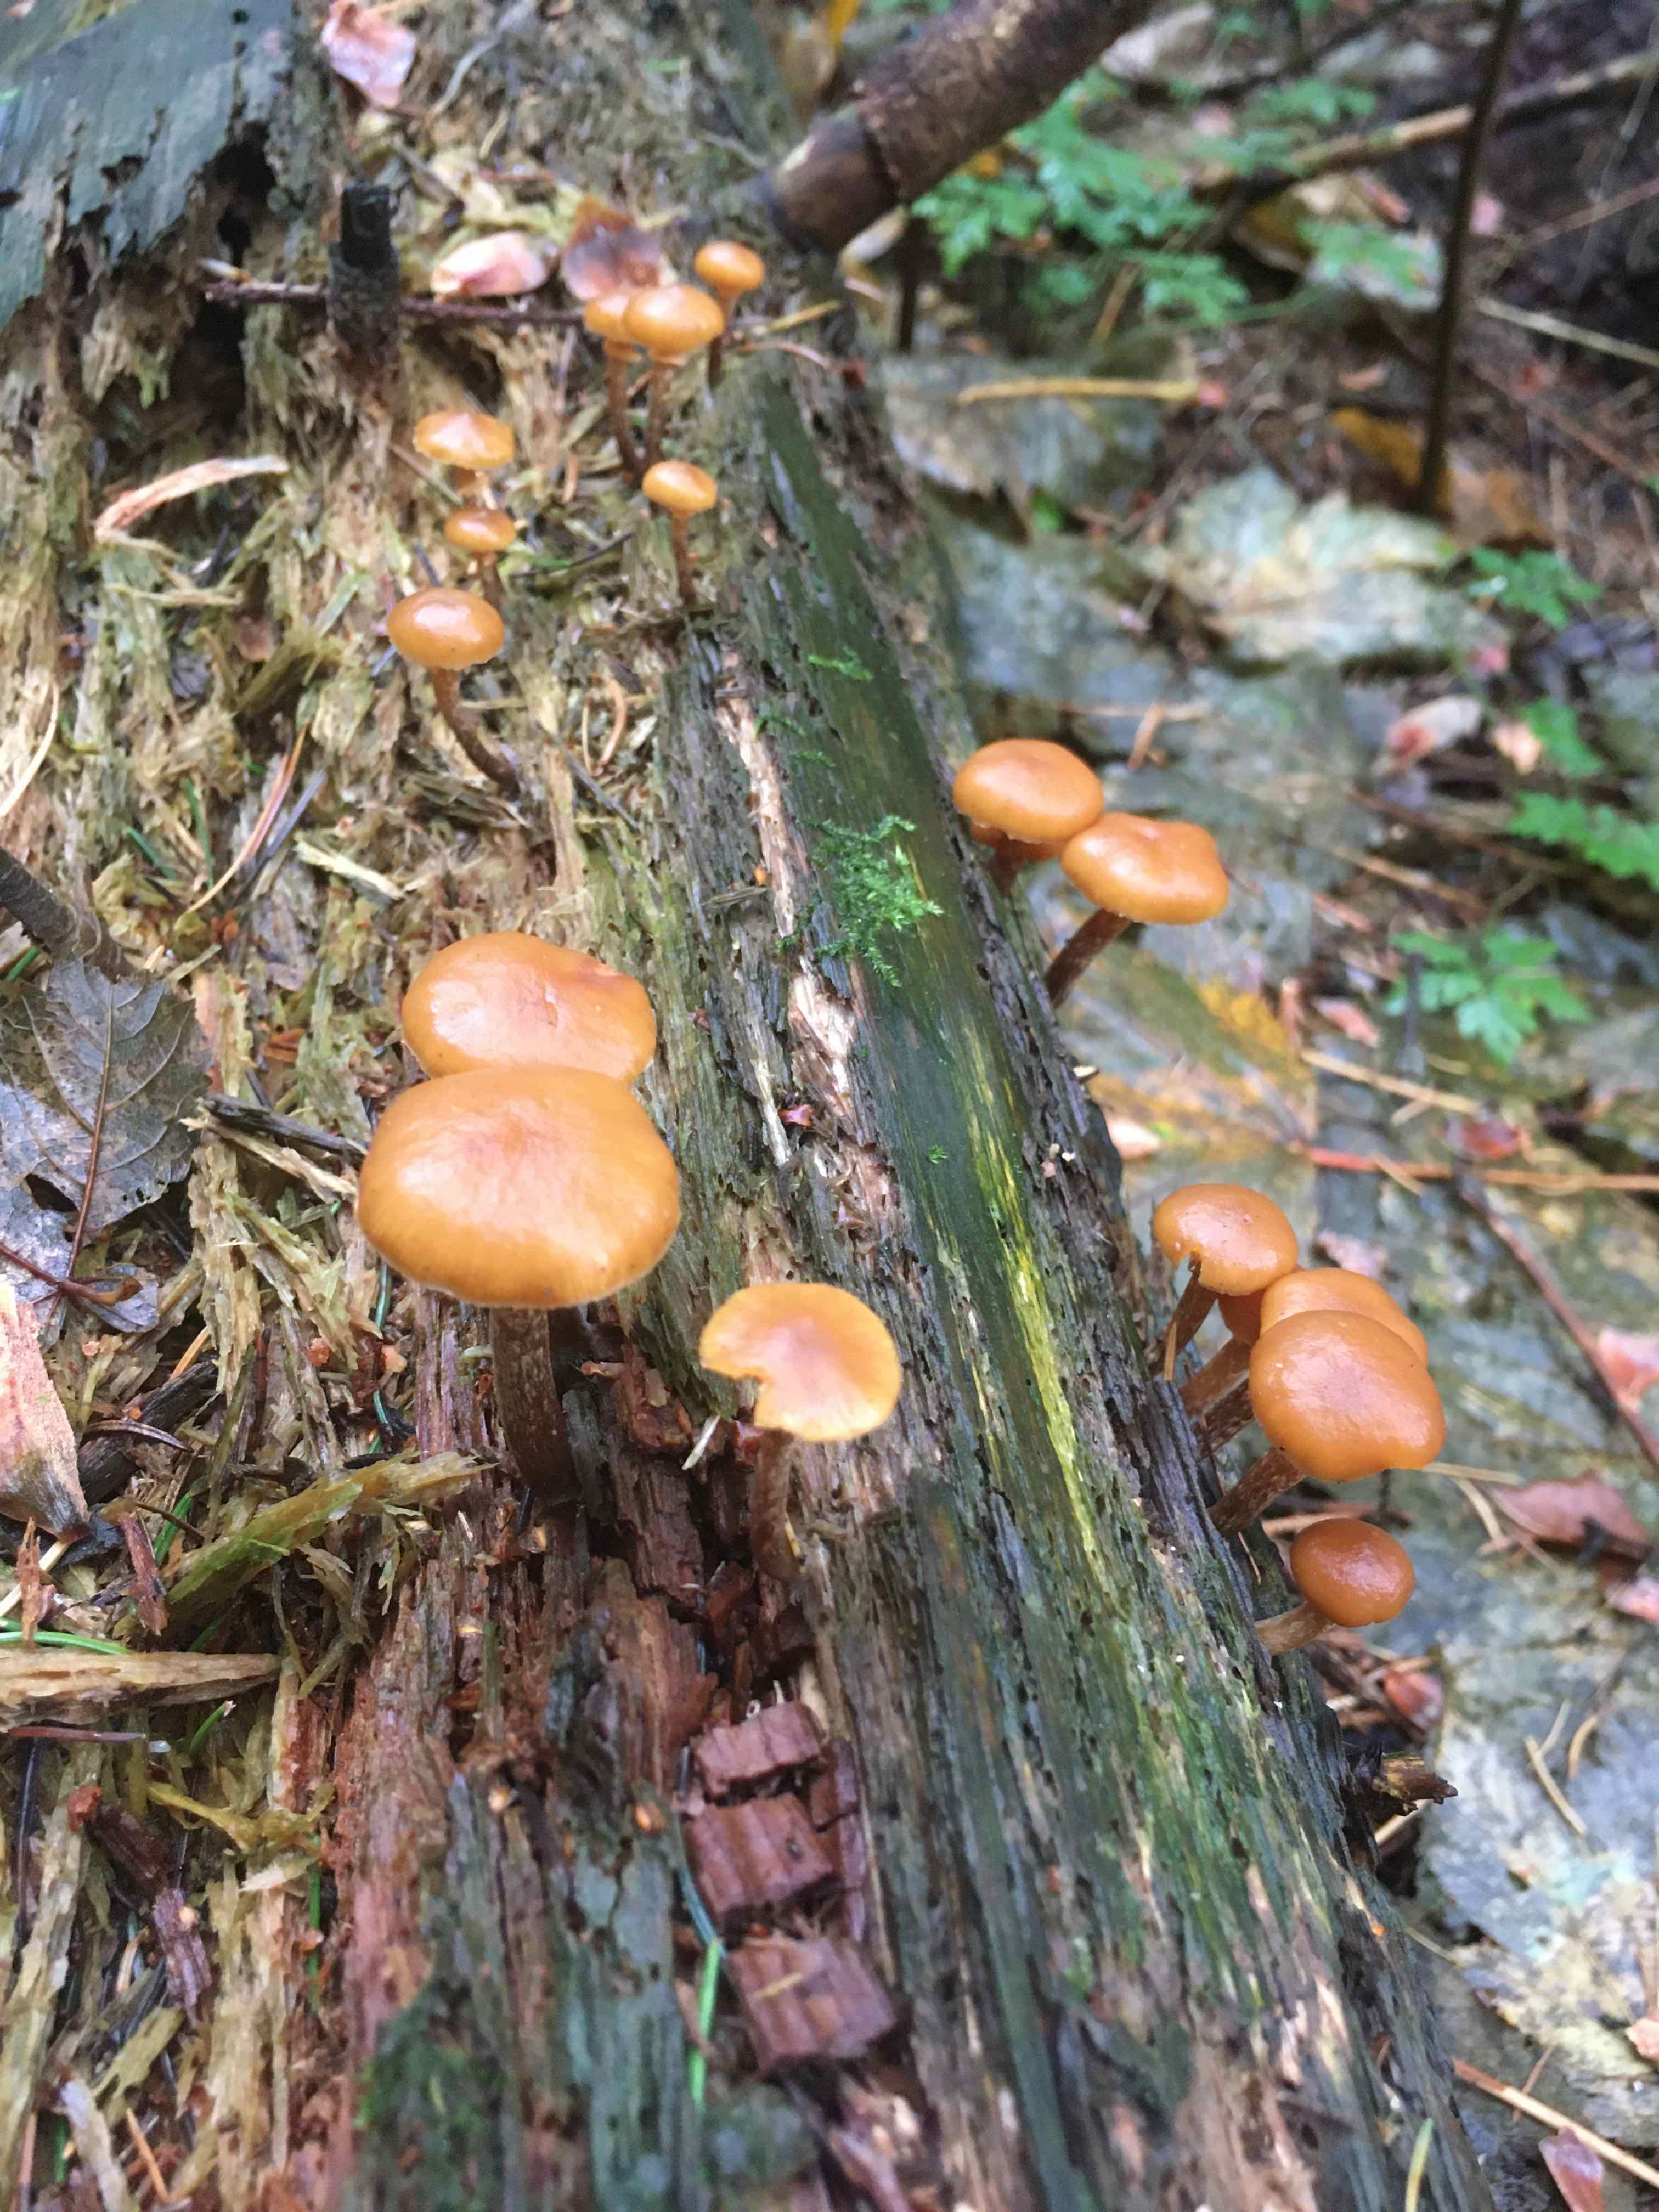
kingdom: Fungi
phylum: Basidiomycota
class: Agaricomycetes
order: Agaricales
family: Hymenogastraceae
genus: Galerina
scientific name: Galerina marginata
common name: randbæltet hjelmhat
